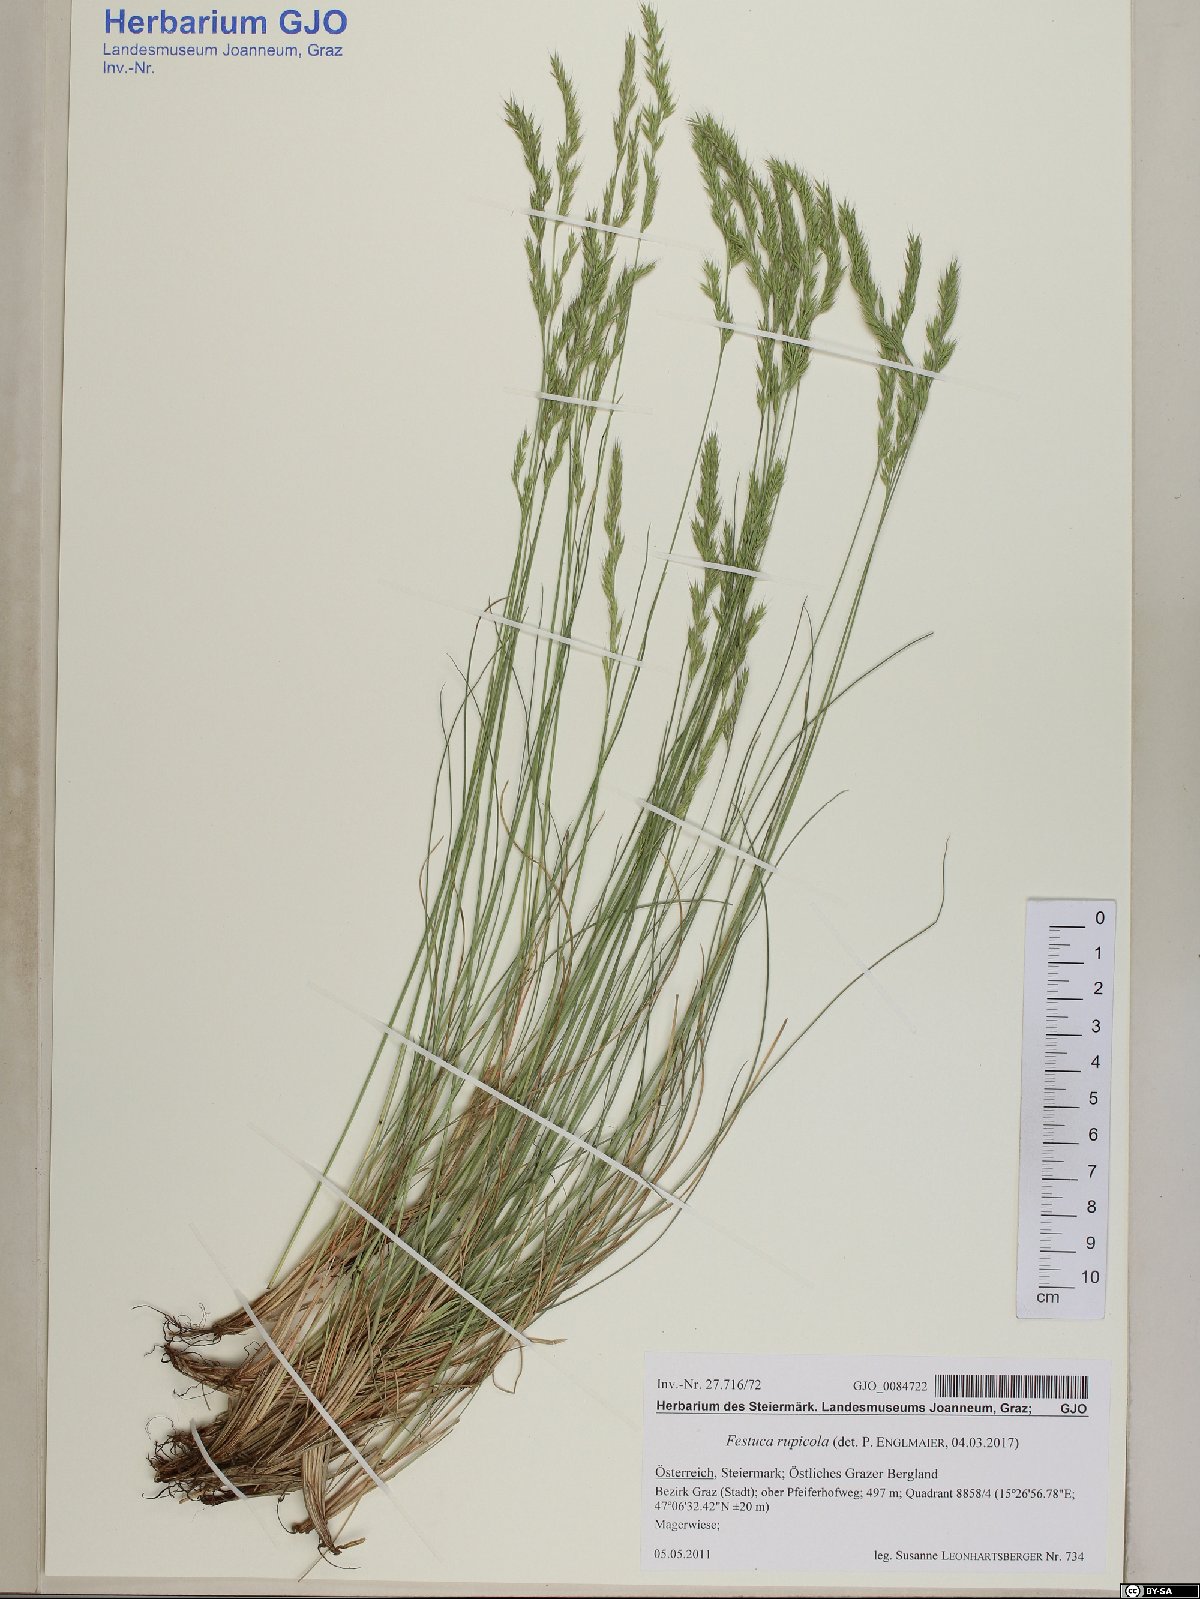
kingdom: Plantae
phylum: Tracheophyta
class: Liliopsida
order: Poales
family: Poaceae
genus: Festuca
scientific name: Festuca rupicola
